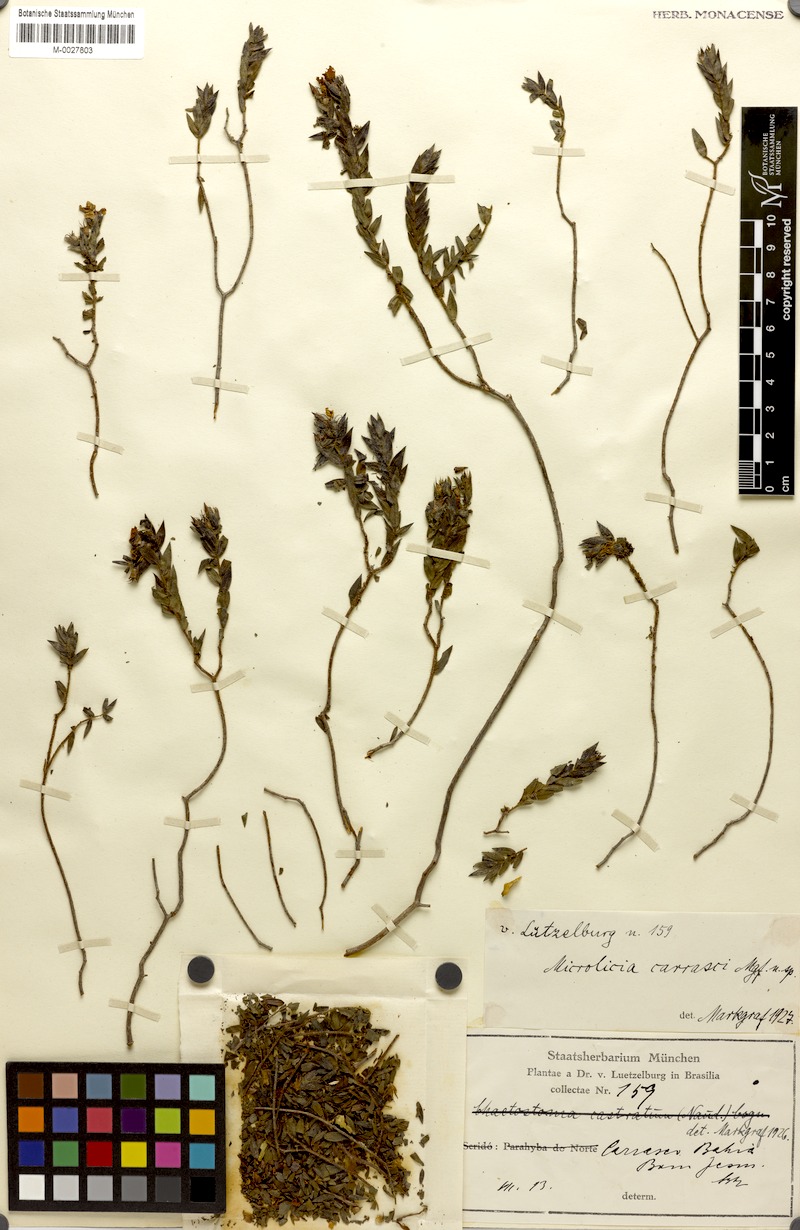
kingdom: Plantae
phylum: Tracheophyta
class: Magnoliopsida
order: Myrtales
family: Melastomataceae
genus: Microlicia
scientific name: Microlicia luetzelburgii
